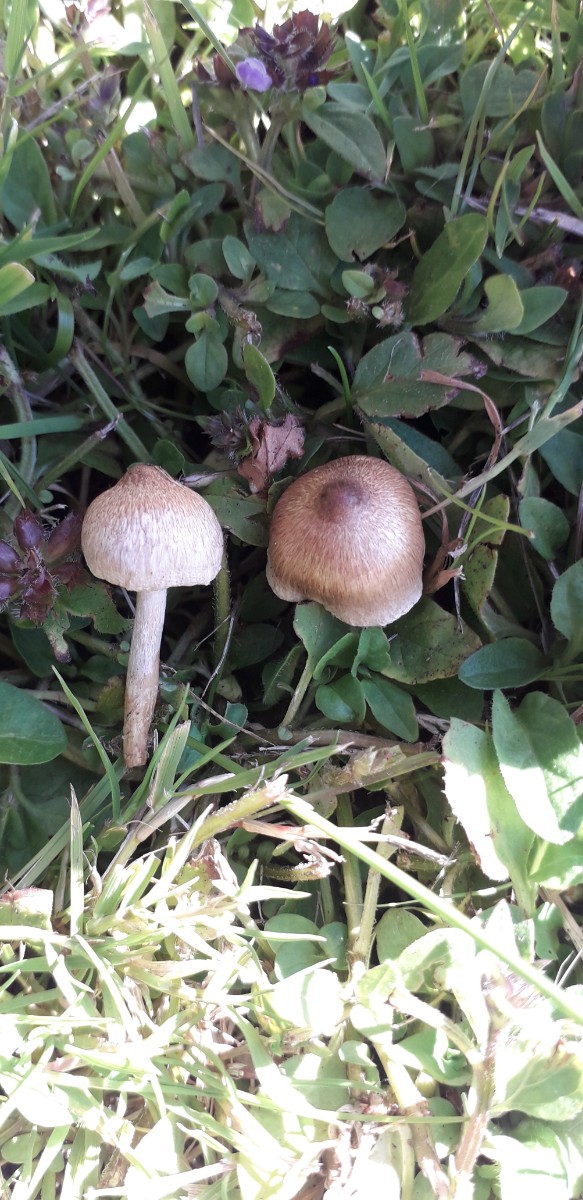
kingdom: Fungi
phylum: Basidiomycota
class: Agaricomycetes
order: Agaricales
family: Inocybaceae
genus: Inocybe
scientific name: Inocybe curvipes
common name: plæne-trævlhat
